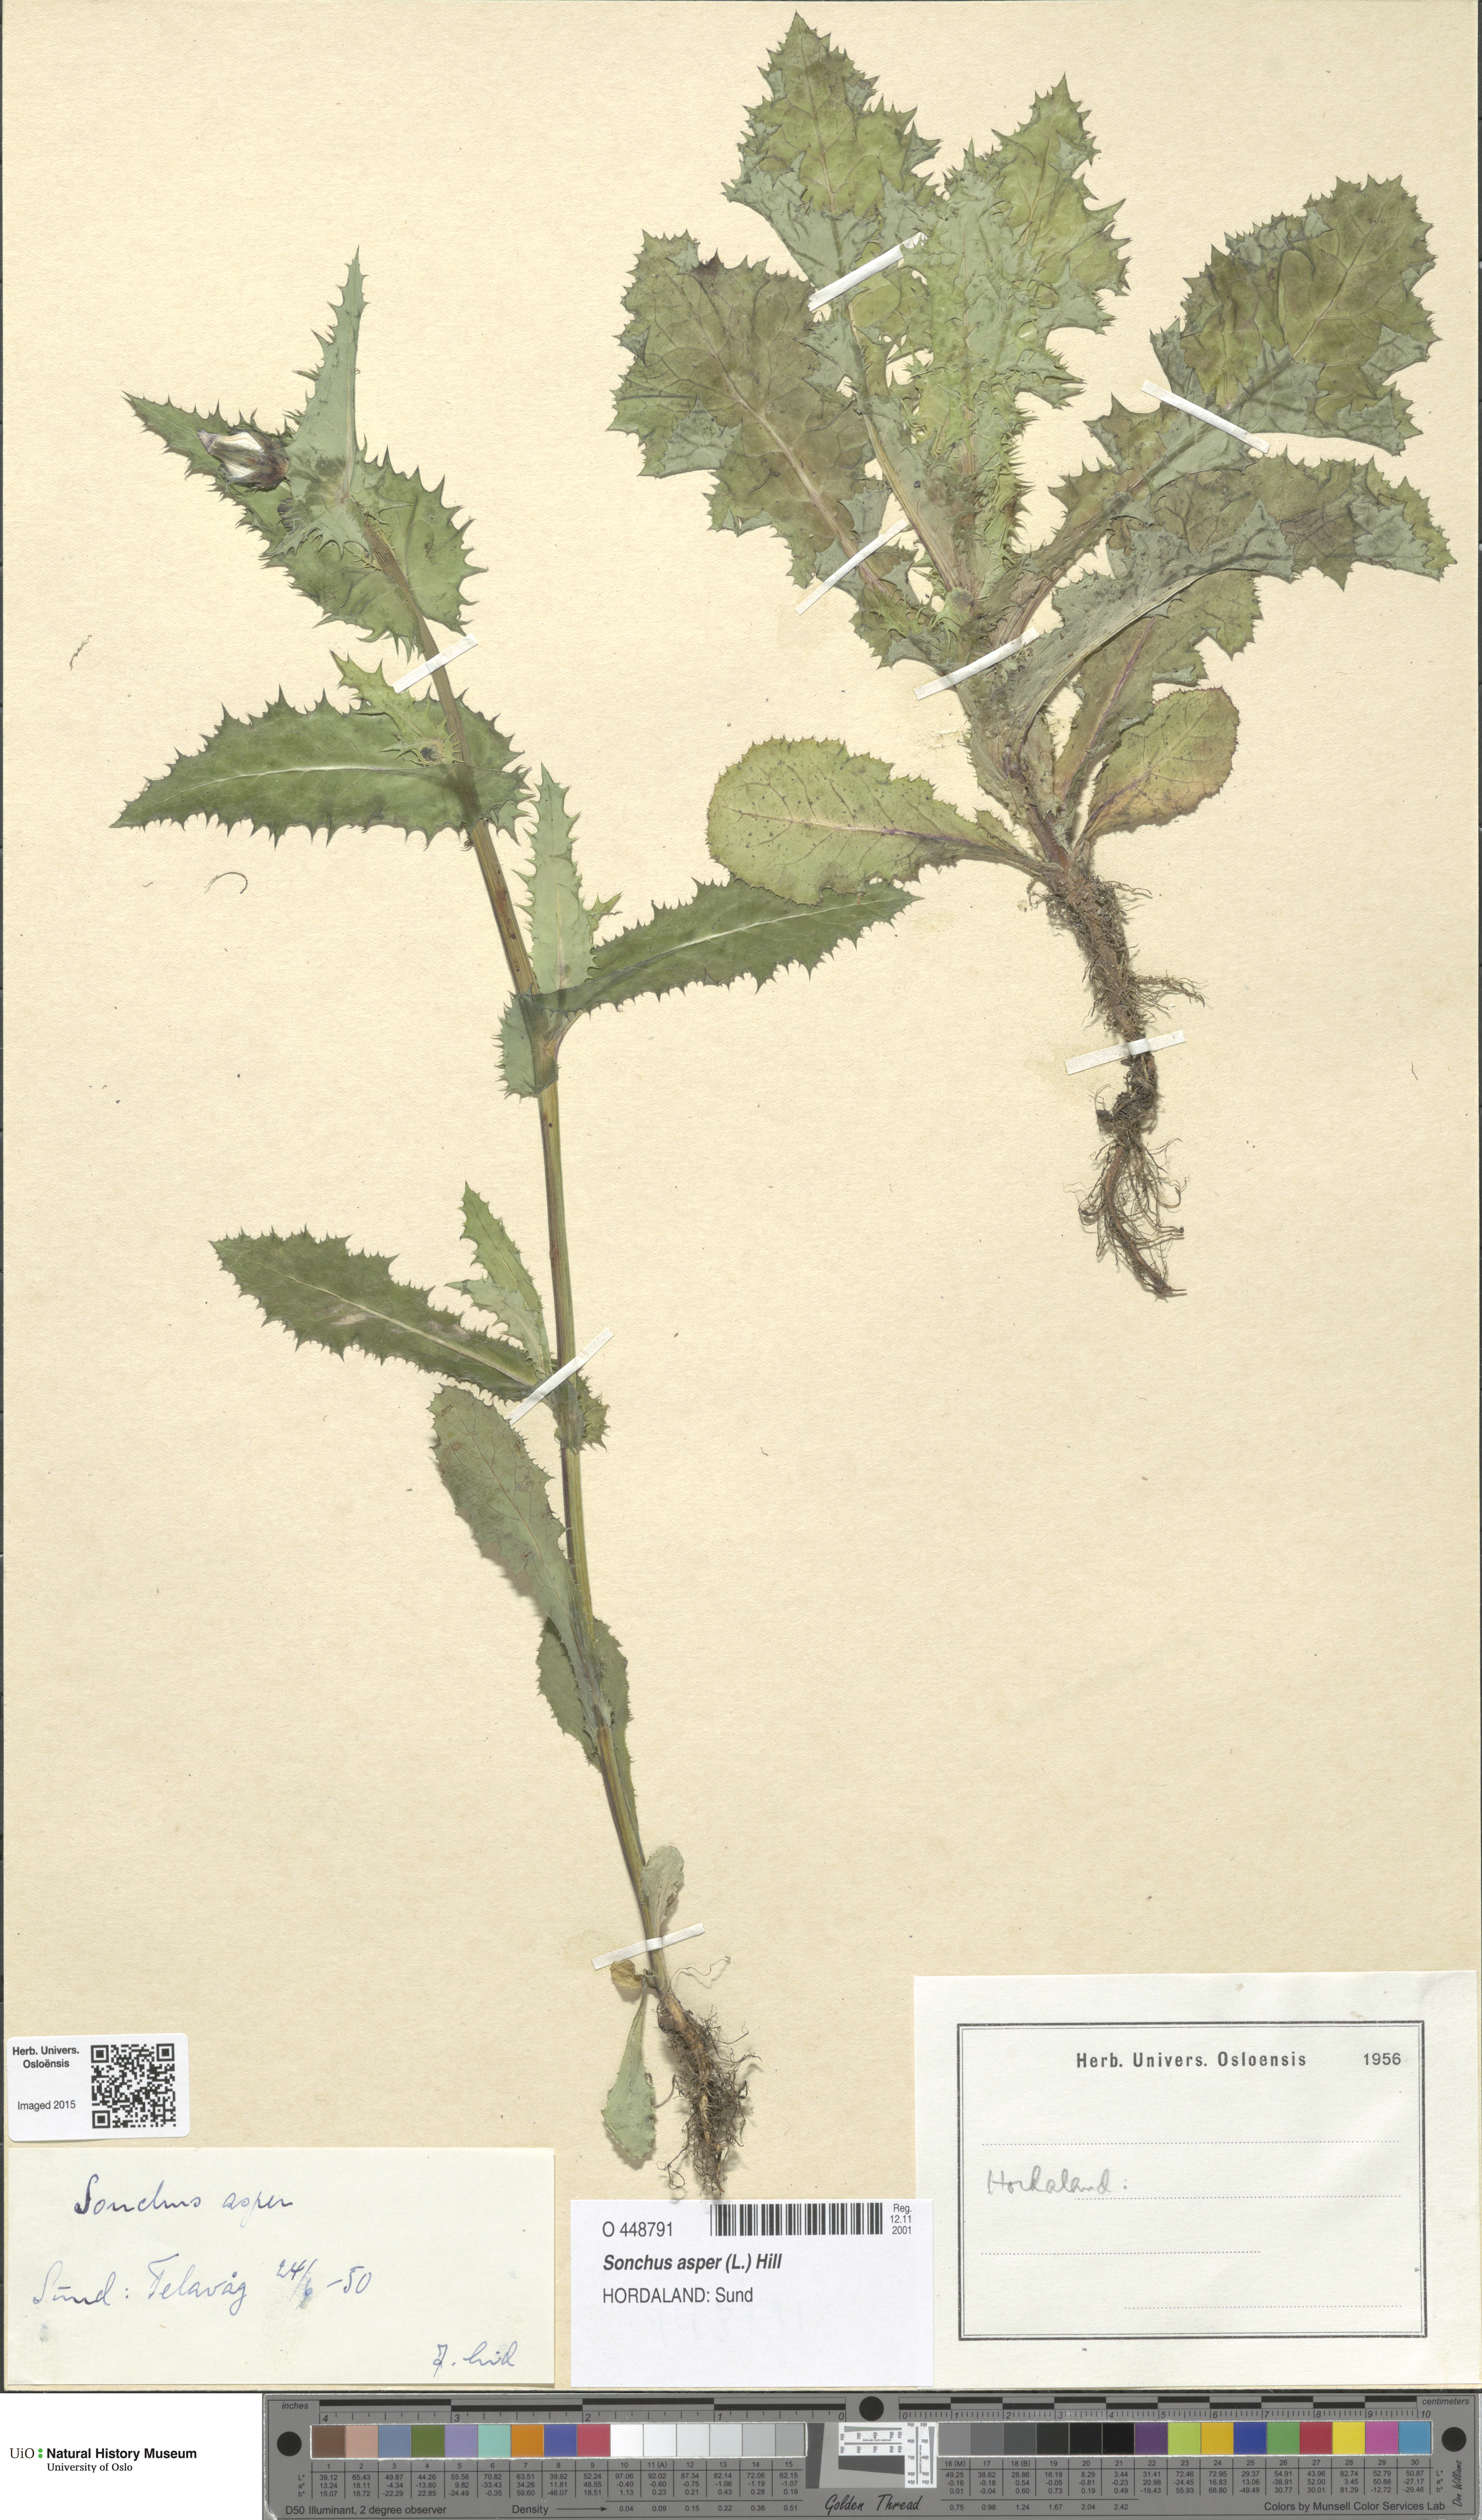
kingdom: Plantae
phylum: Tracheophyta
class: Magnoliopsida
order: Asterales
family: Asteraceae
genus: Sonchus
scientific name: Sonchus asper
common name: Prickly sow-thistle
